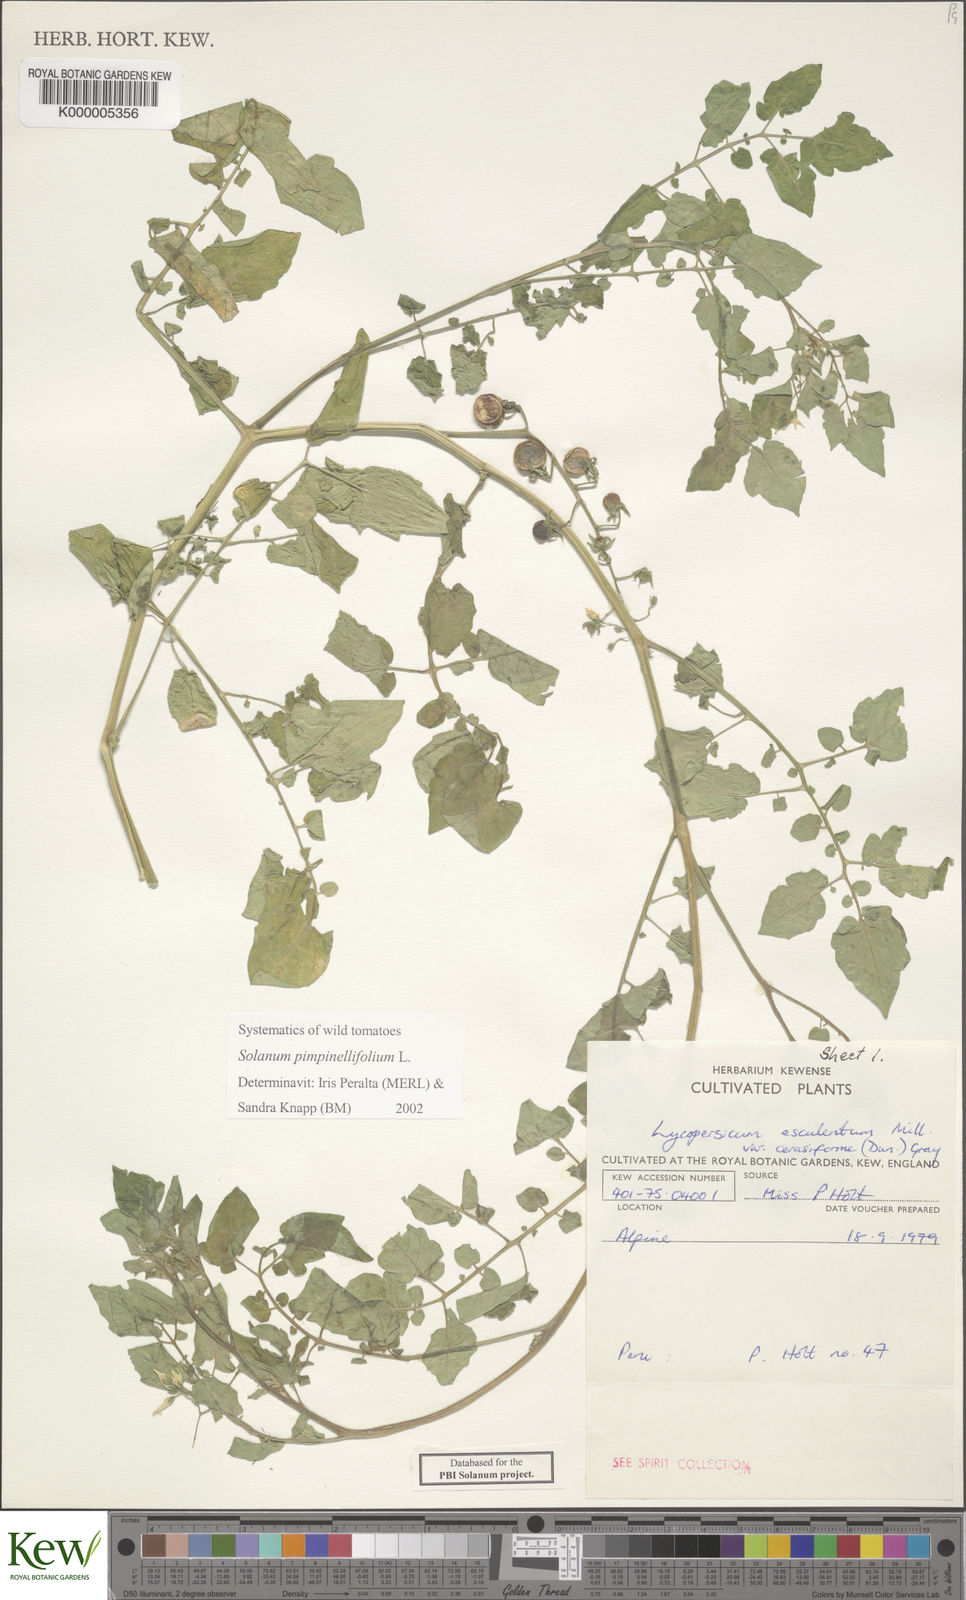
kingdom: Plantae
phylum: Tracheophyta
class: Magnoliopsida
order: Solanales
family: Solanaceae
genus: Solanum
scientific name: Solanum pimpinellifolium
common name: Currant-tomato
